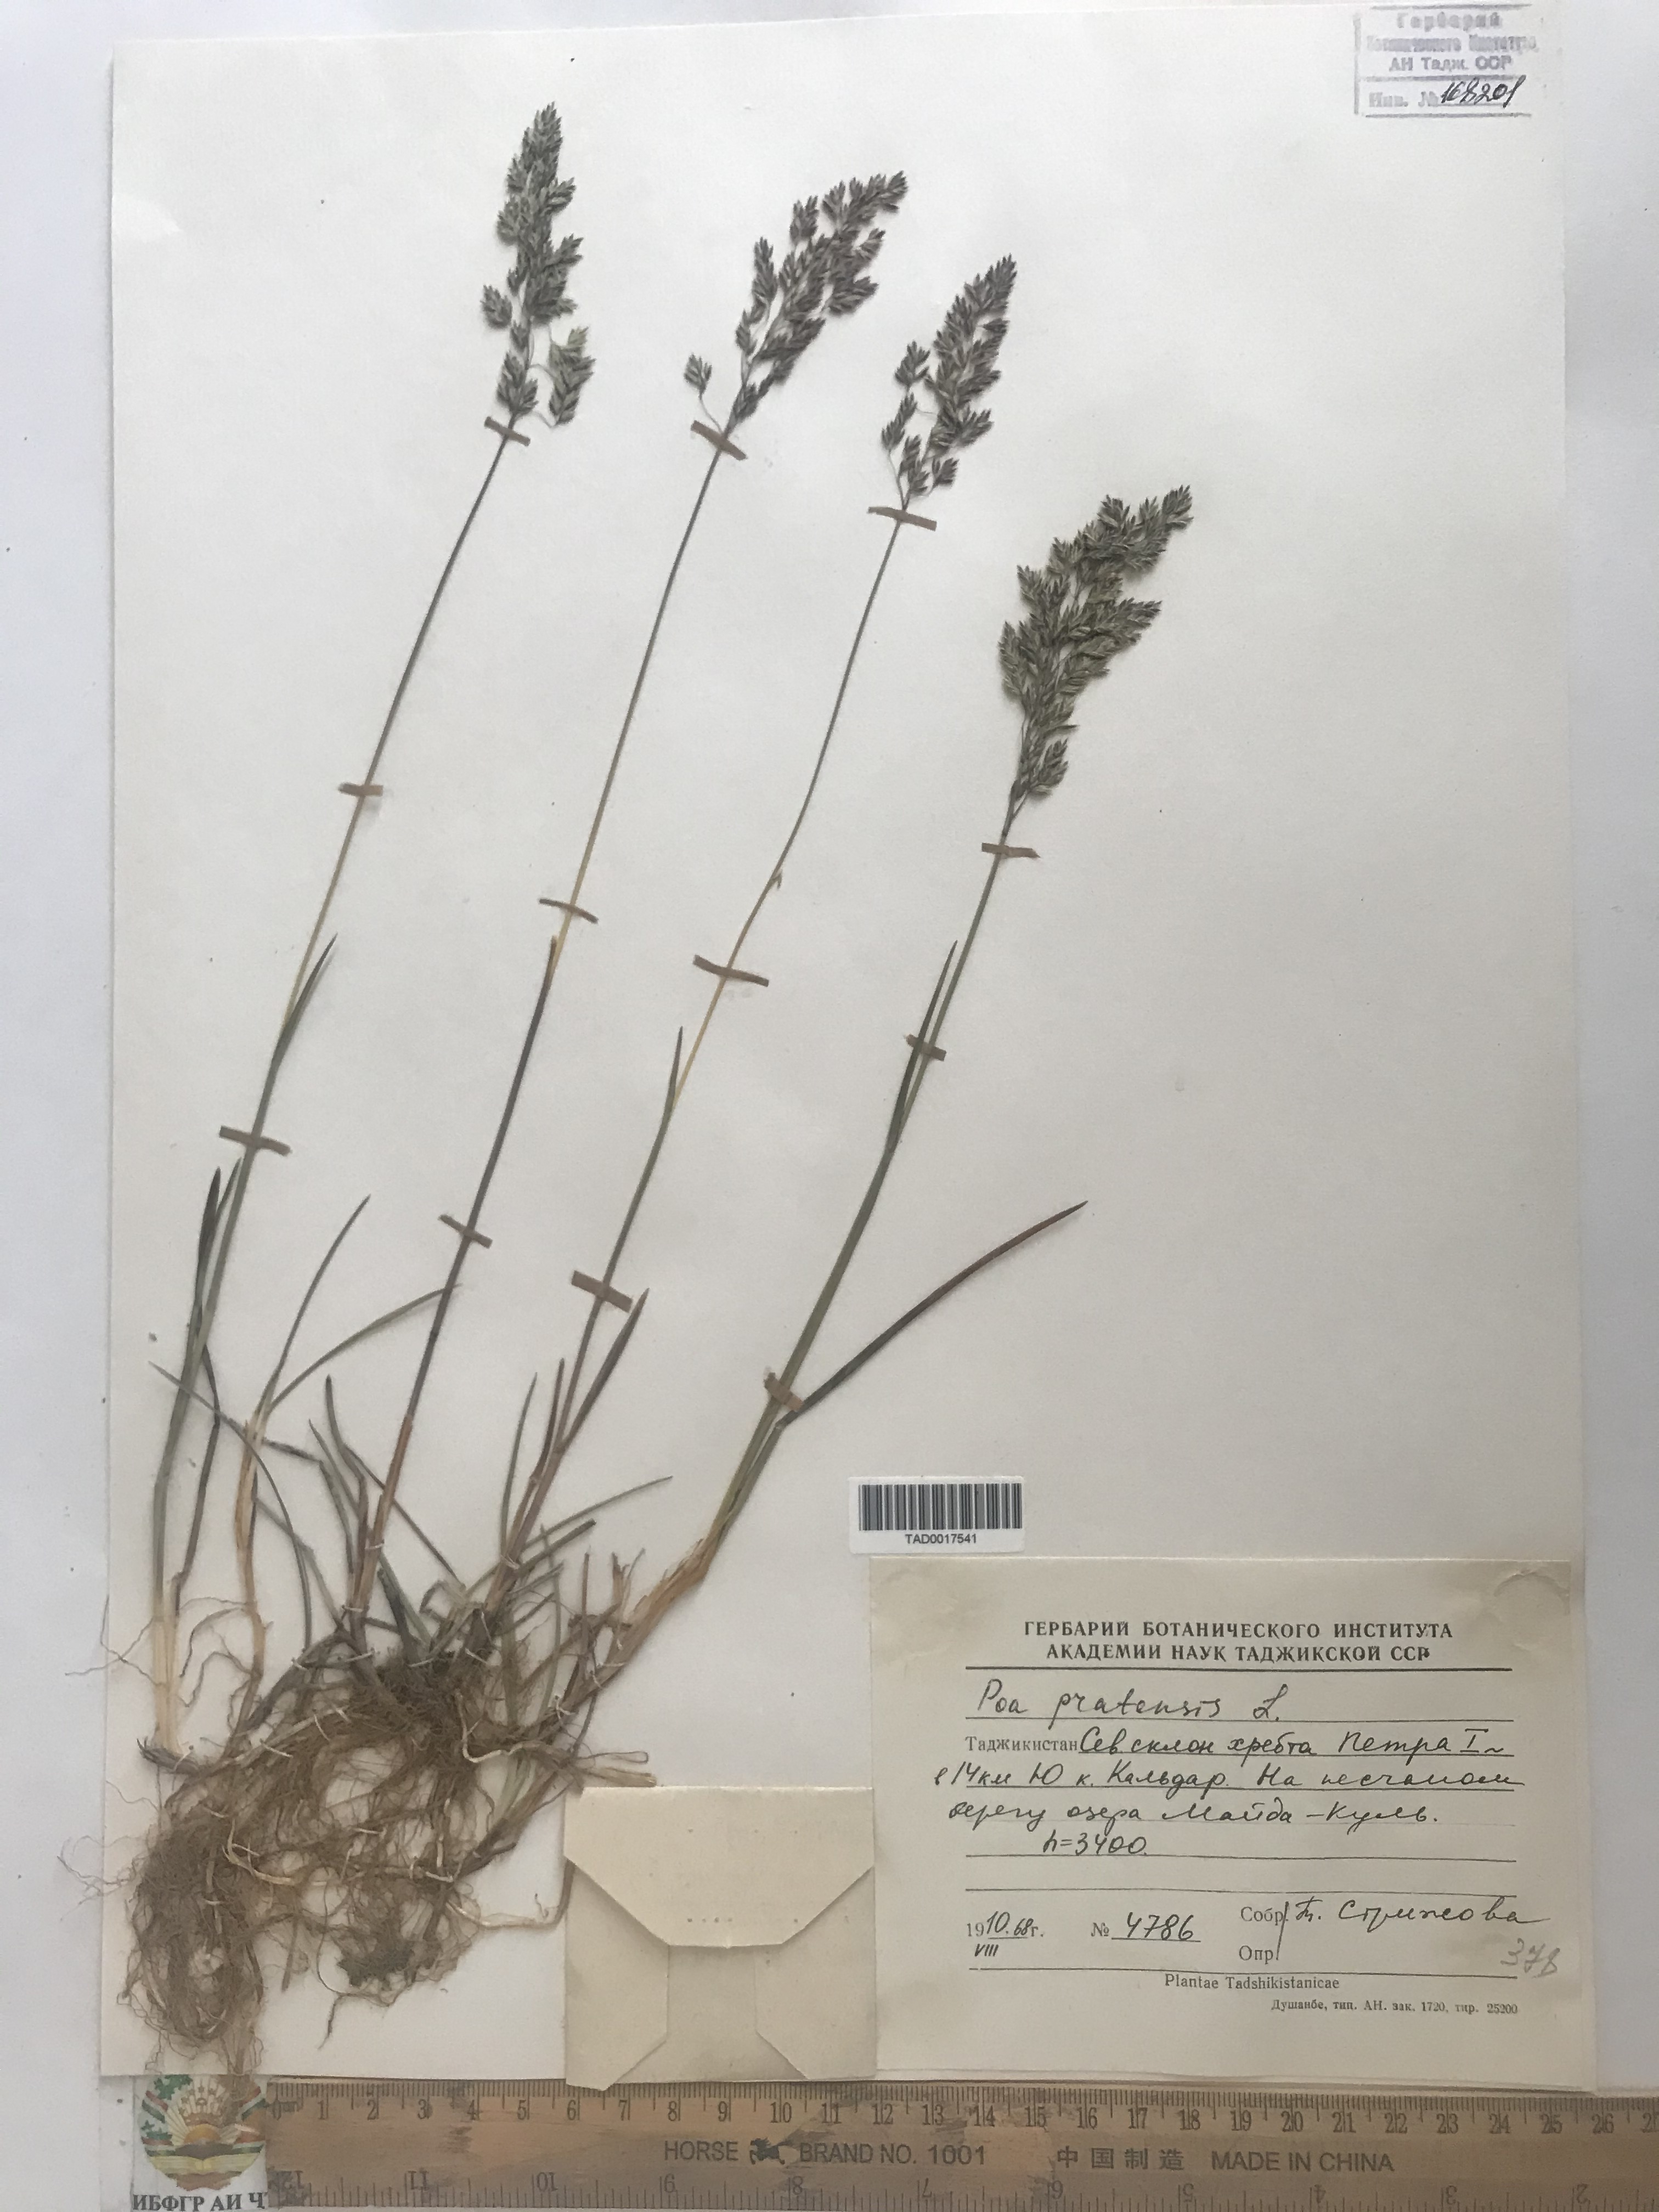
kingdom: Plantae
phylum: Tracheophyta
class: Liliopsida
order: Poales
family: Poaceae
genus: Poa
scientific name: Poa pratensis
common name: Kentucky bluegrass
